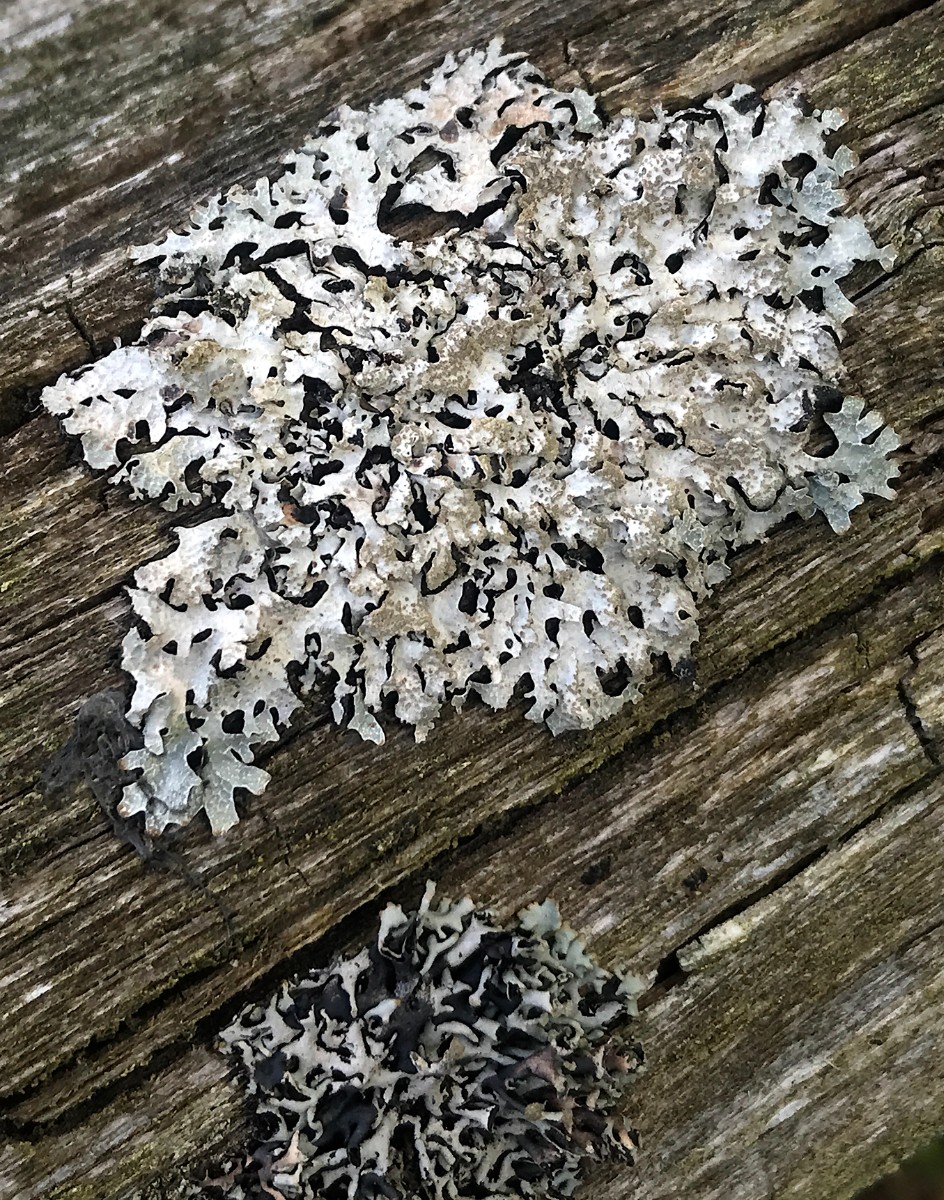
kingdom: Fungi
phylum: Ascomycota
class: Lecanoromycetes
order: Lecanorales
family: Parmeliaceae
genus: Parmelia
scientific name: Parmelia sulcata
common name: rynket skållav
